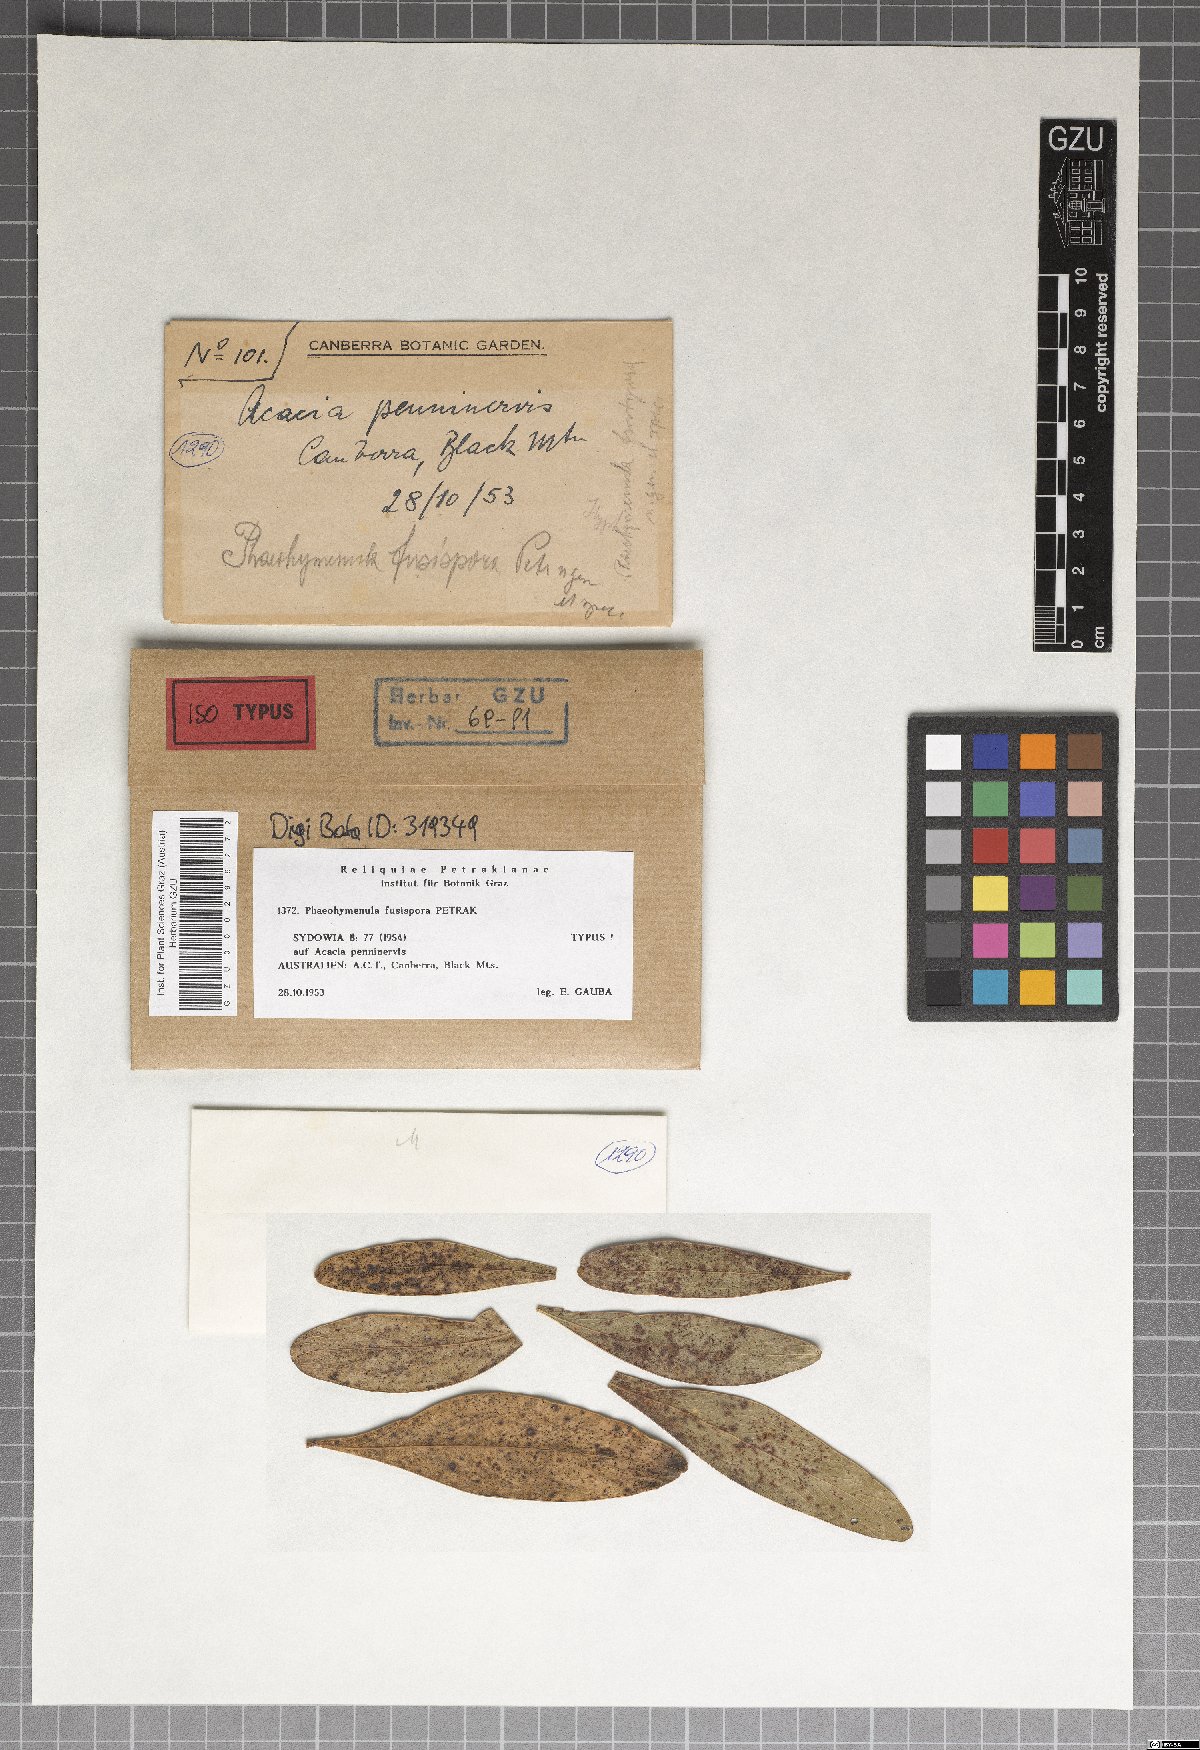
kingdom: Fungi
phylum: Ascomycota
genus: Phaeohymenula
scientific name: Phaeohymenula fusispora
